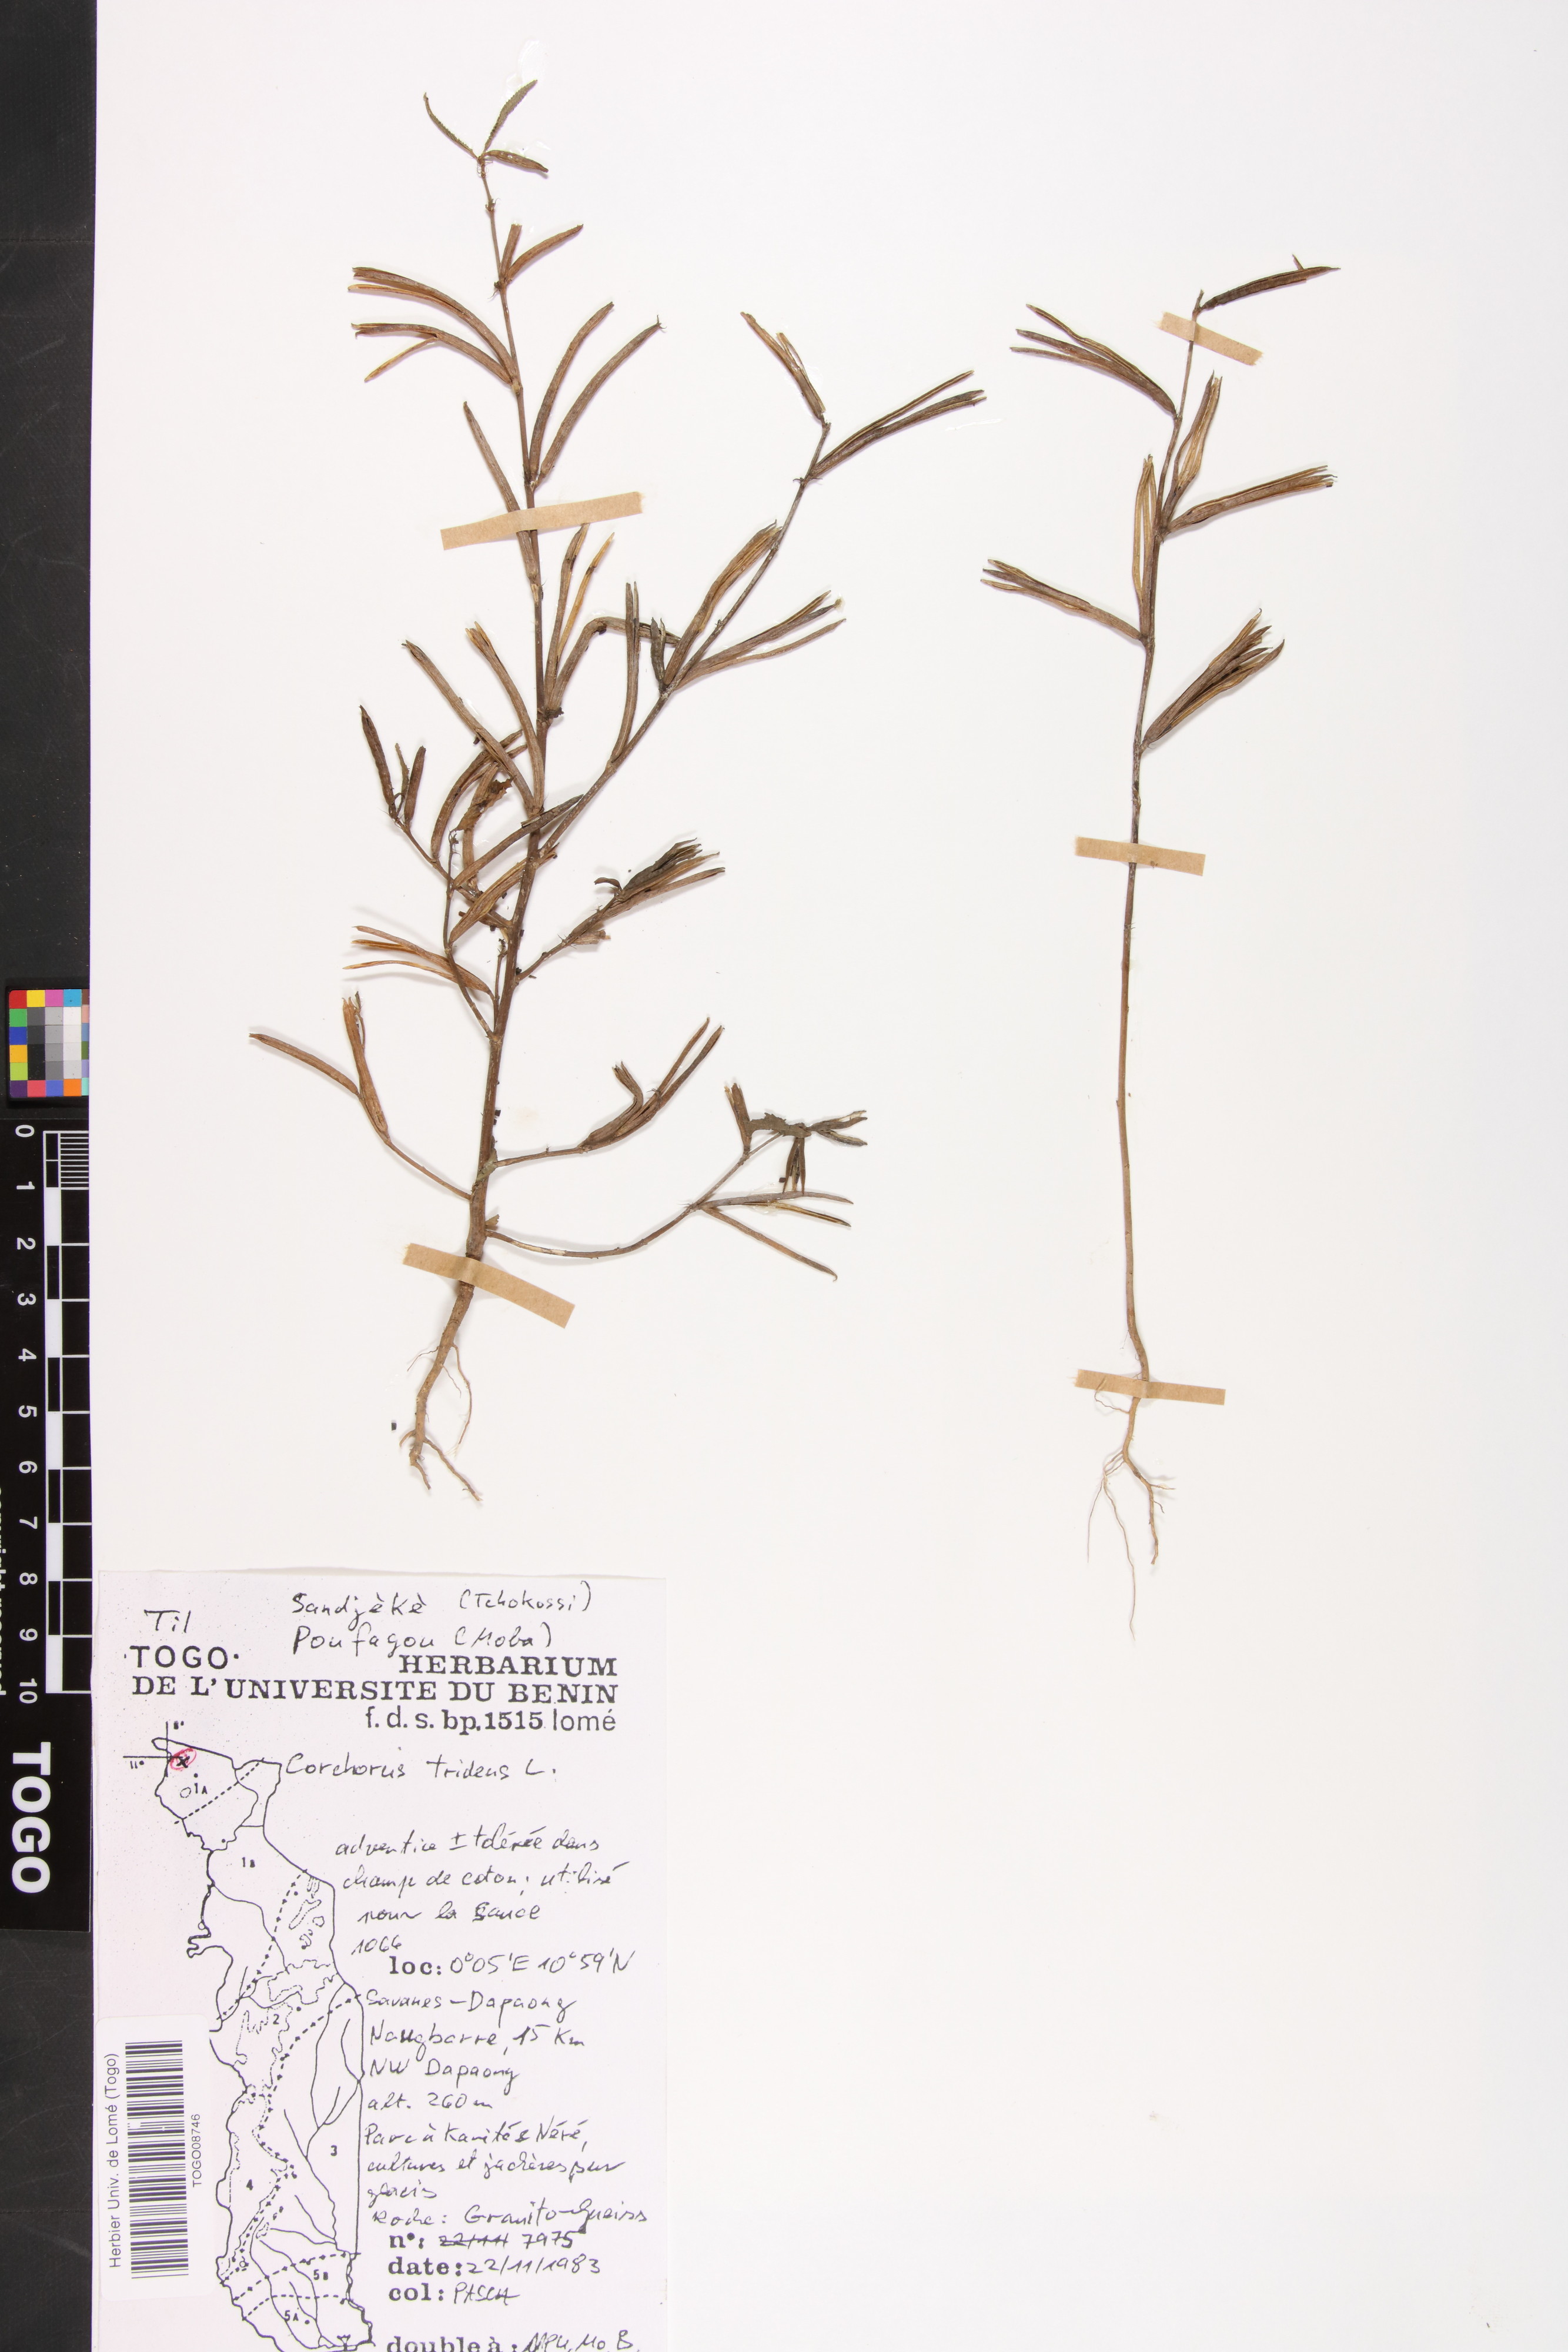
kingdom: Plantae
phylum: Tracheophyta
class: Magnoliopsida
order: Malvales
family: Malvaceae
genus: Corchorus
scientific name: Corchorus tridens
